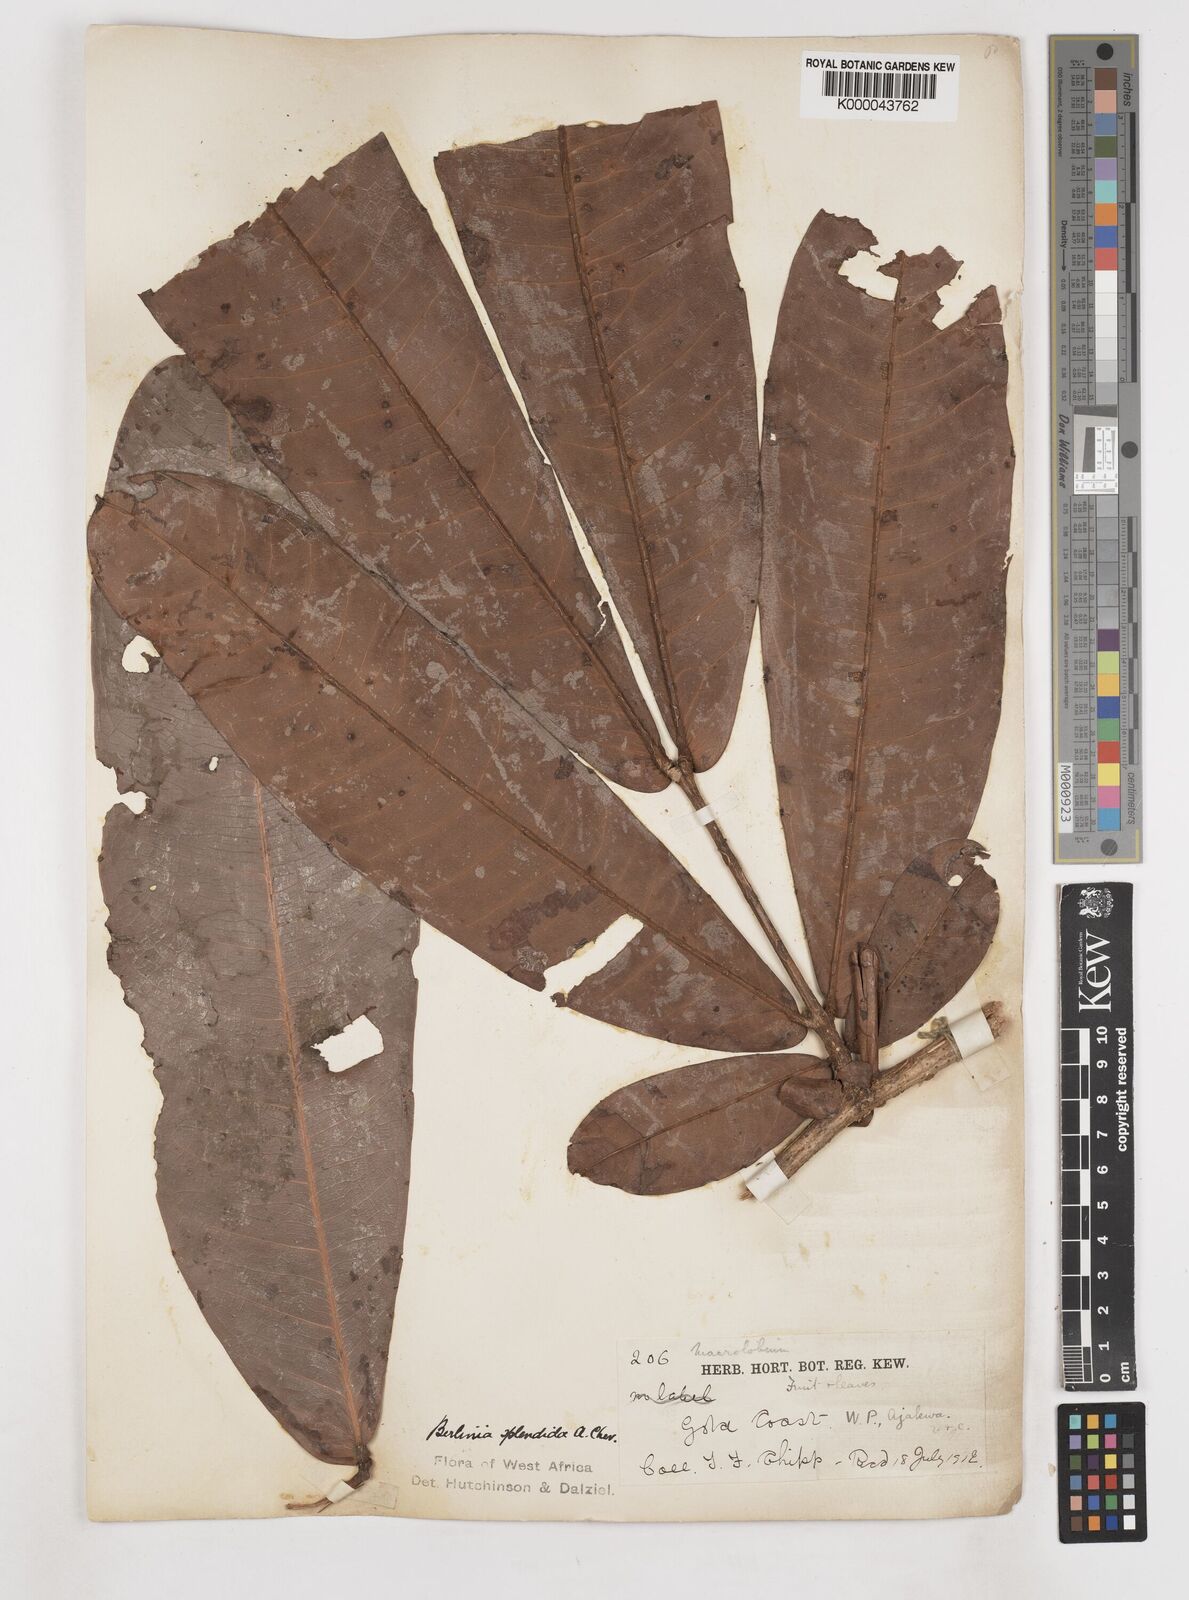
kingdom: Plantae
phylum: Tracheophyta
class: Magnoliopsida
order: Fabales
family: Fabaceae
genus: Gilbertiodendron
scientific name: Gilbertiodendron
